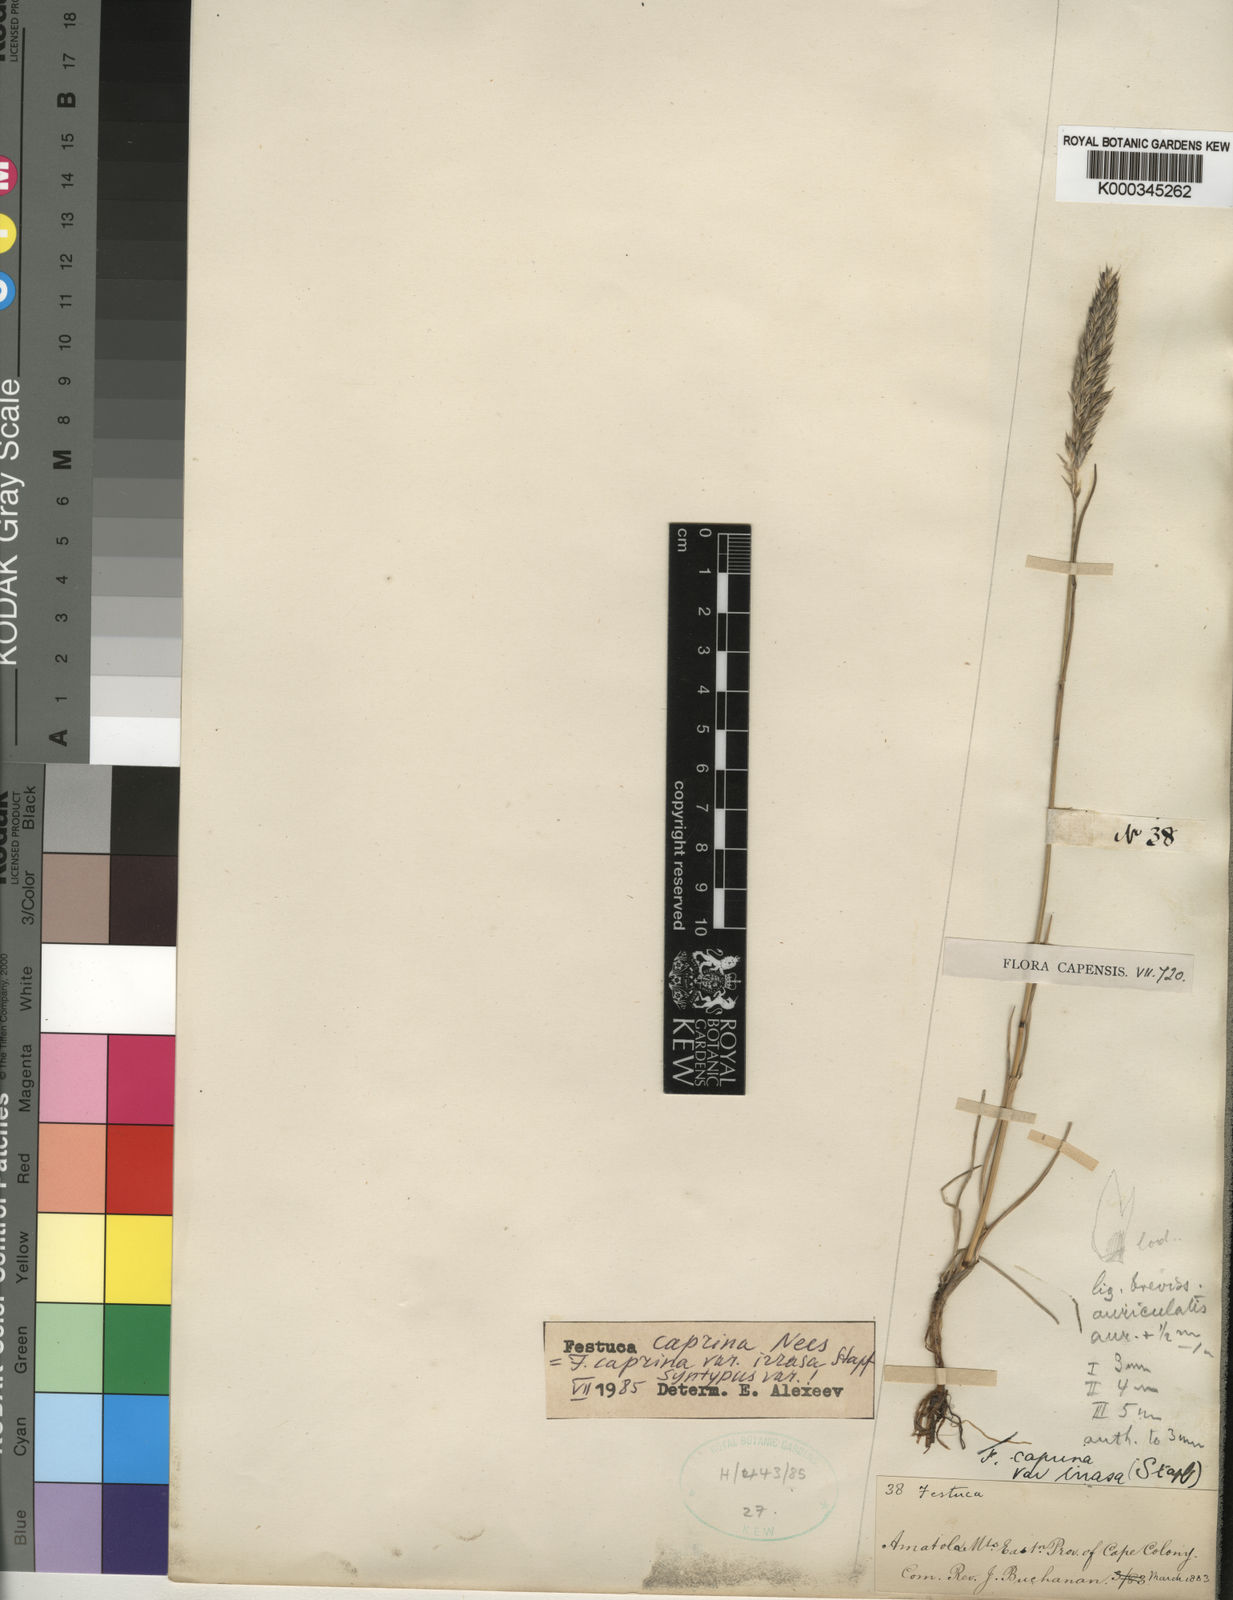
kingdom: Plantae
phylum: Tracheophyta
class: Liliopsida
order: Poales
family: Poaceae
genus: Festuca
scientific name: Festuca caprina
